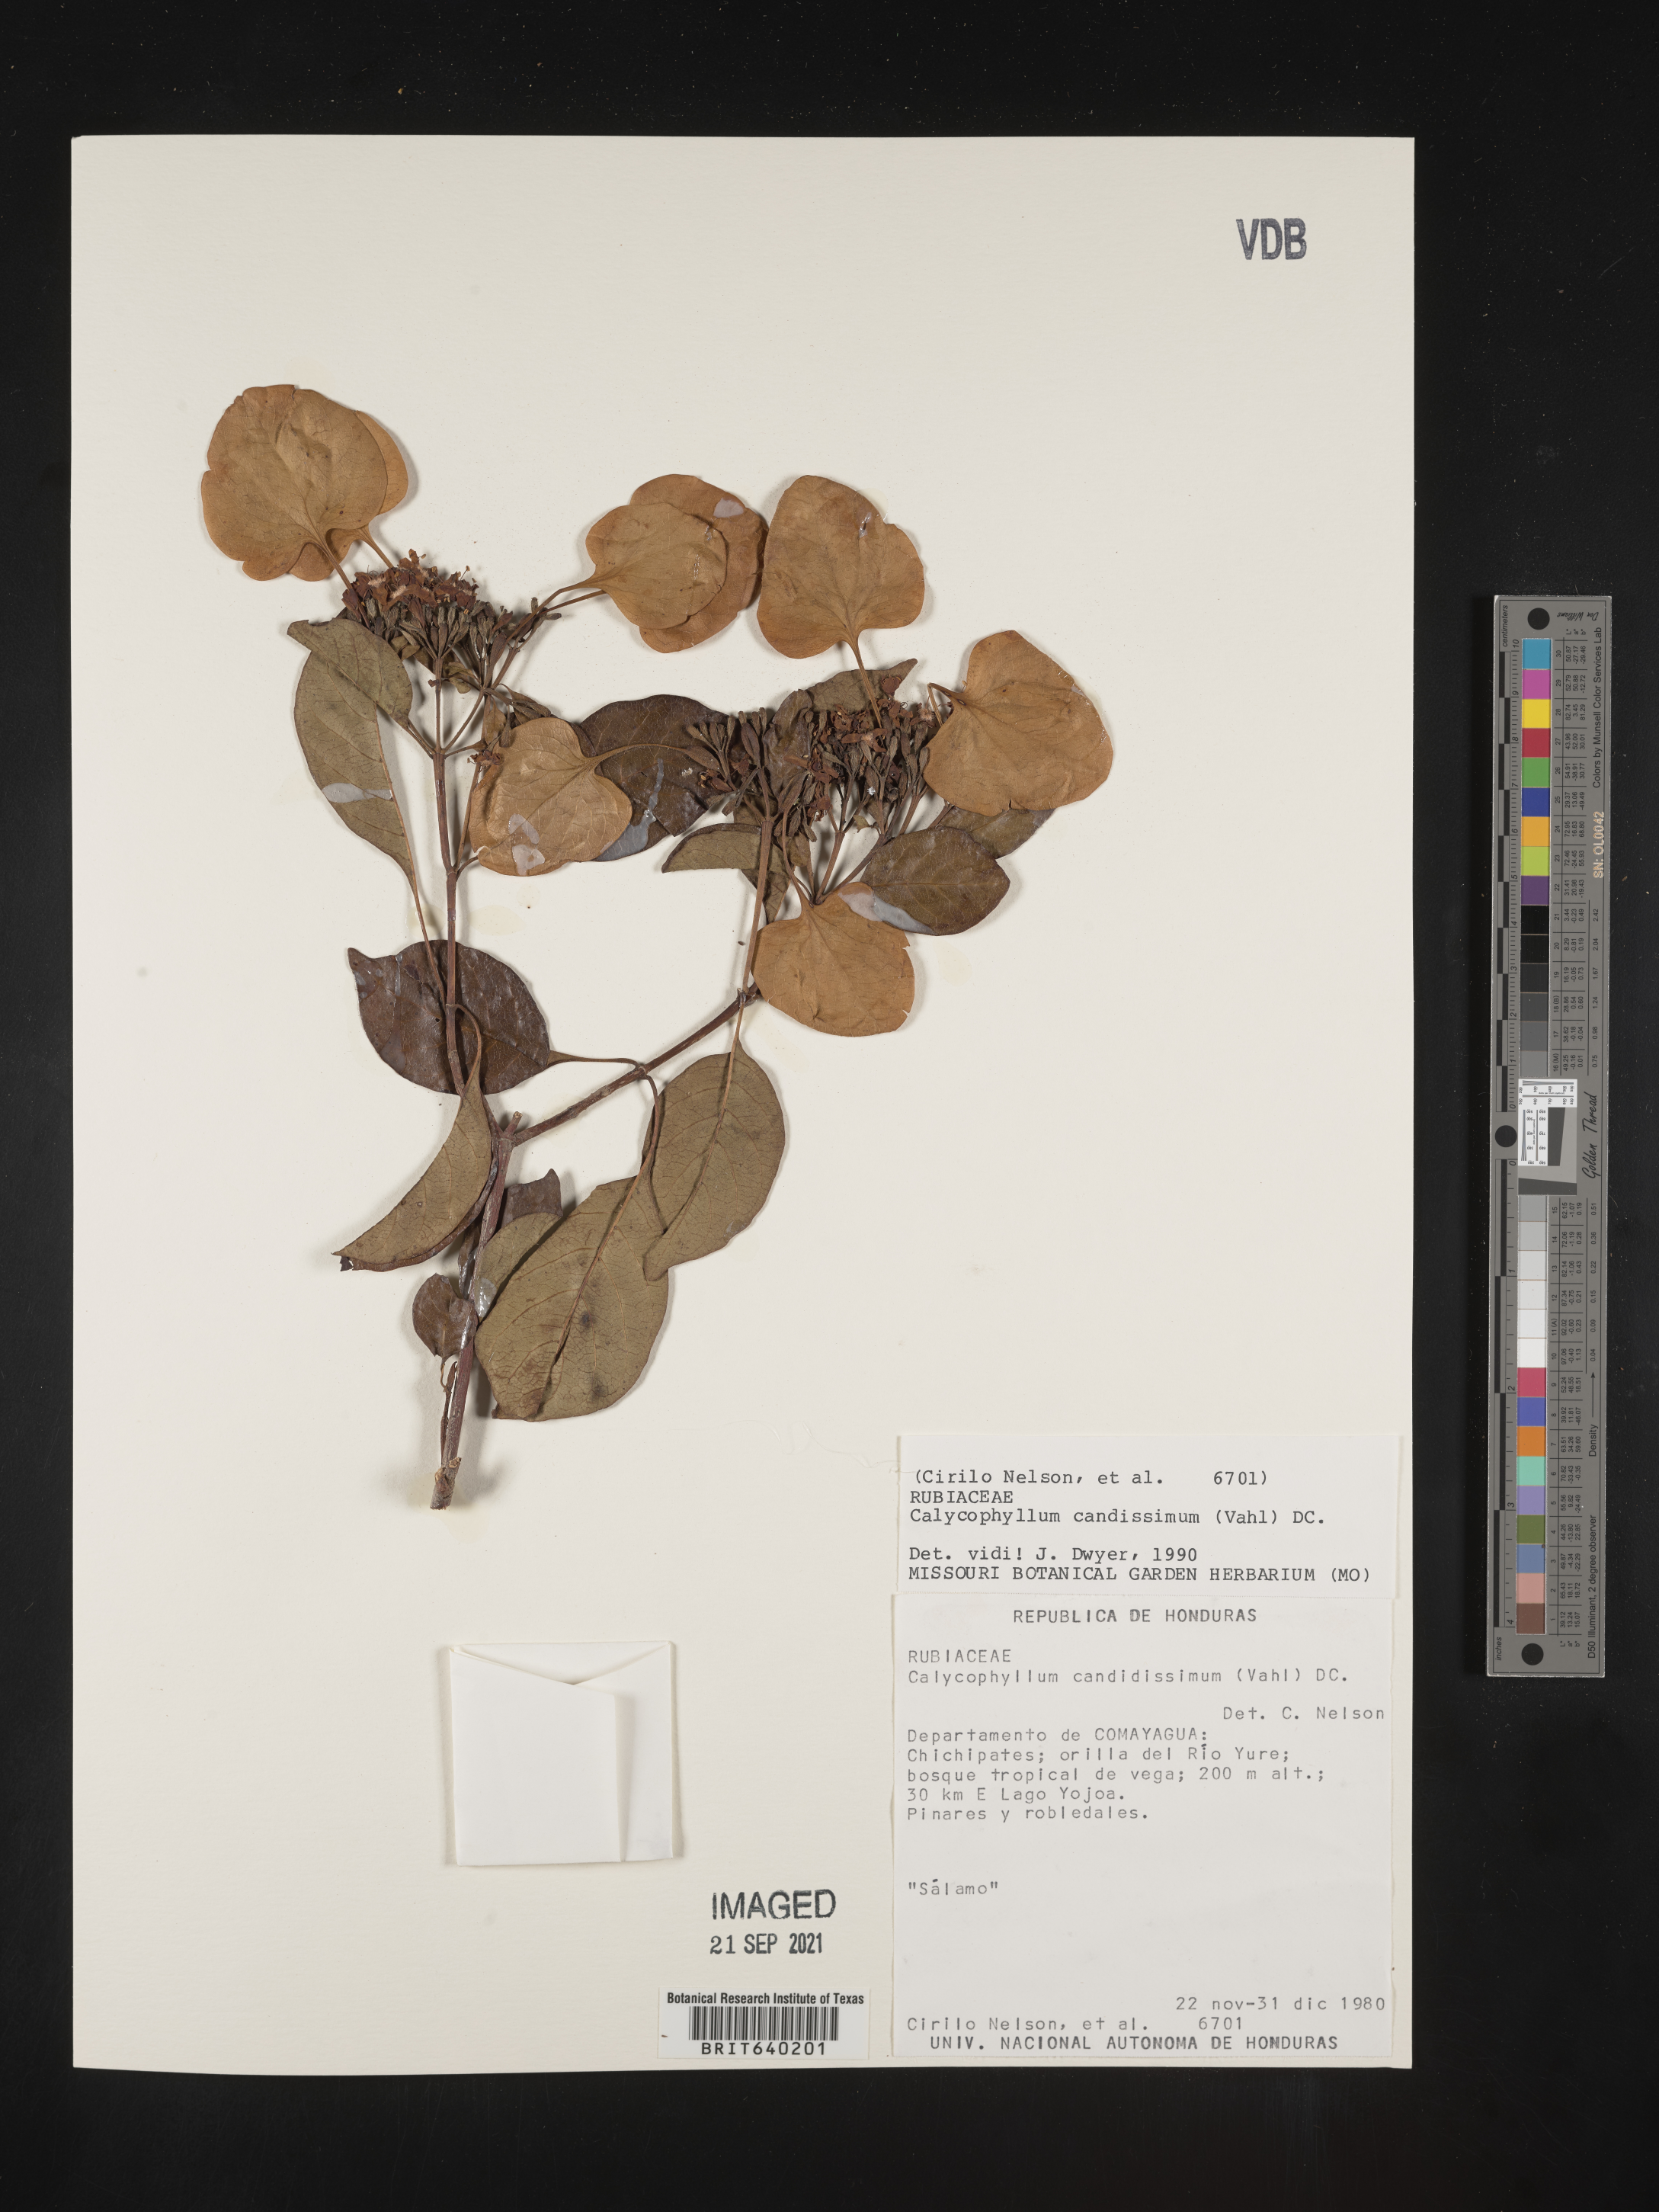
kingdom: Plantae
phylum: Tracheophyta
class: Magnoliopsida
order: Gentianales
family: Rubiaceae
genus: Calycophyllum
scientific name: Calycophyllum
